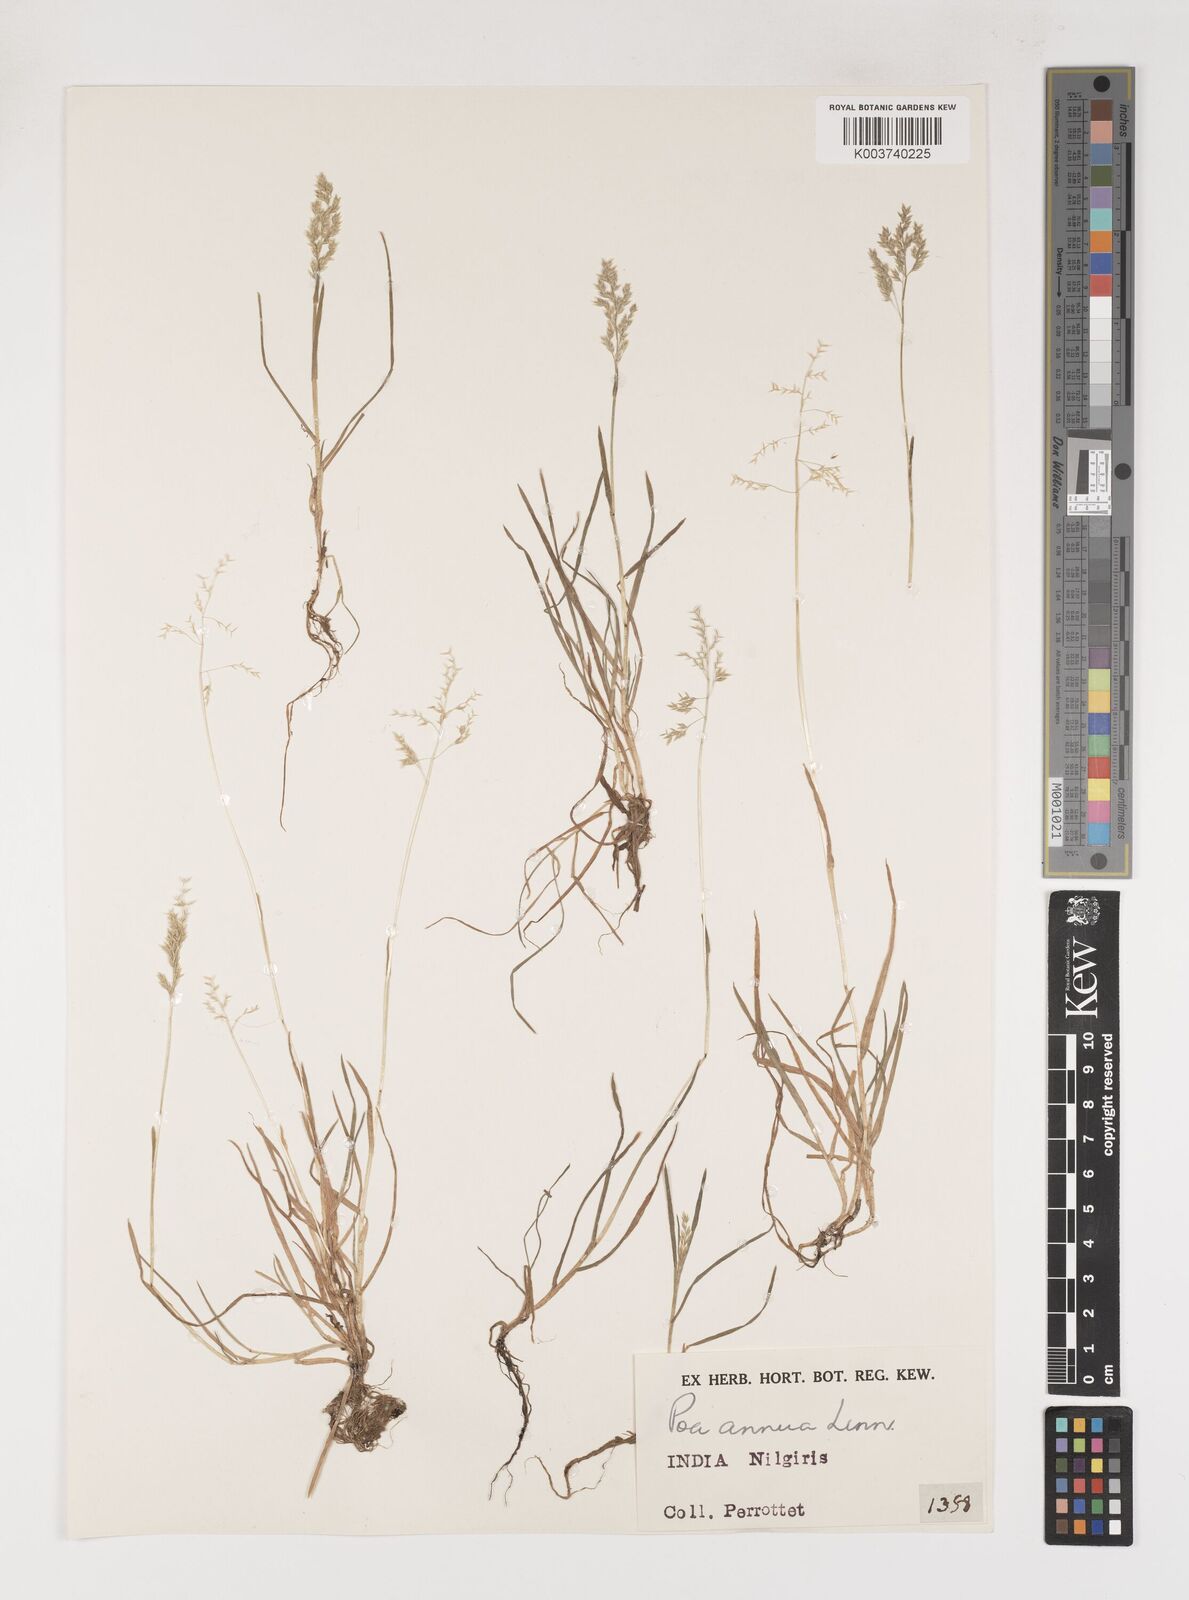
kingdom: Plantae
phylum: Tracheophyta
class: Liliopsida
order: Poales
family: Poaceae
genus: Poa
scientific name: Poa annua
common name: Annual bluegrass
